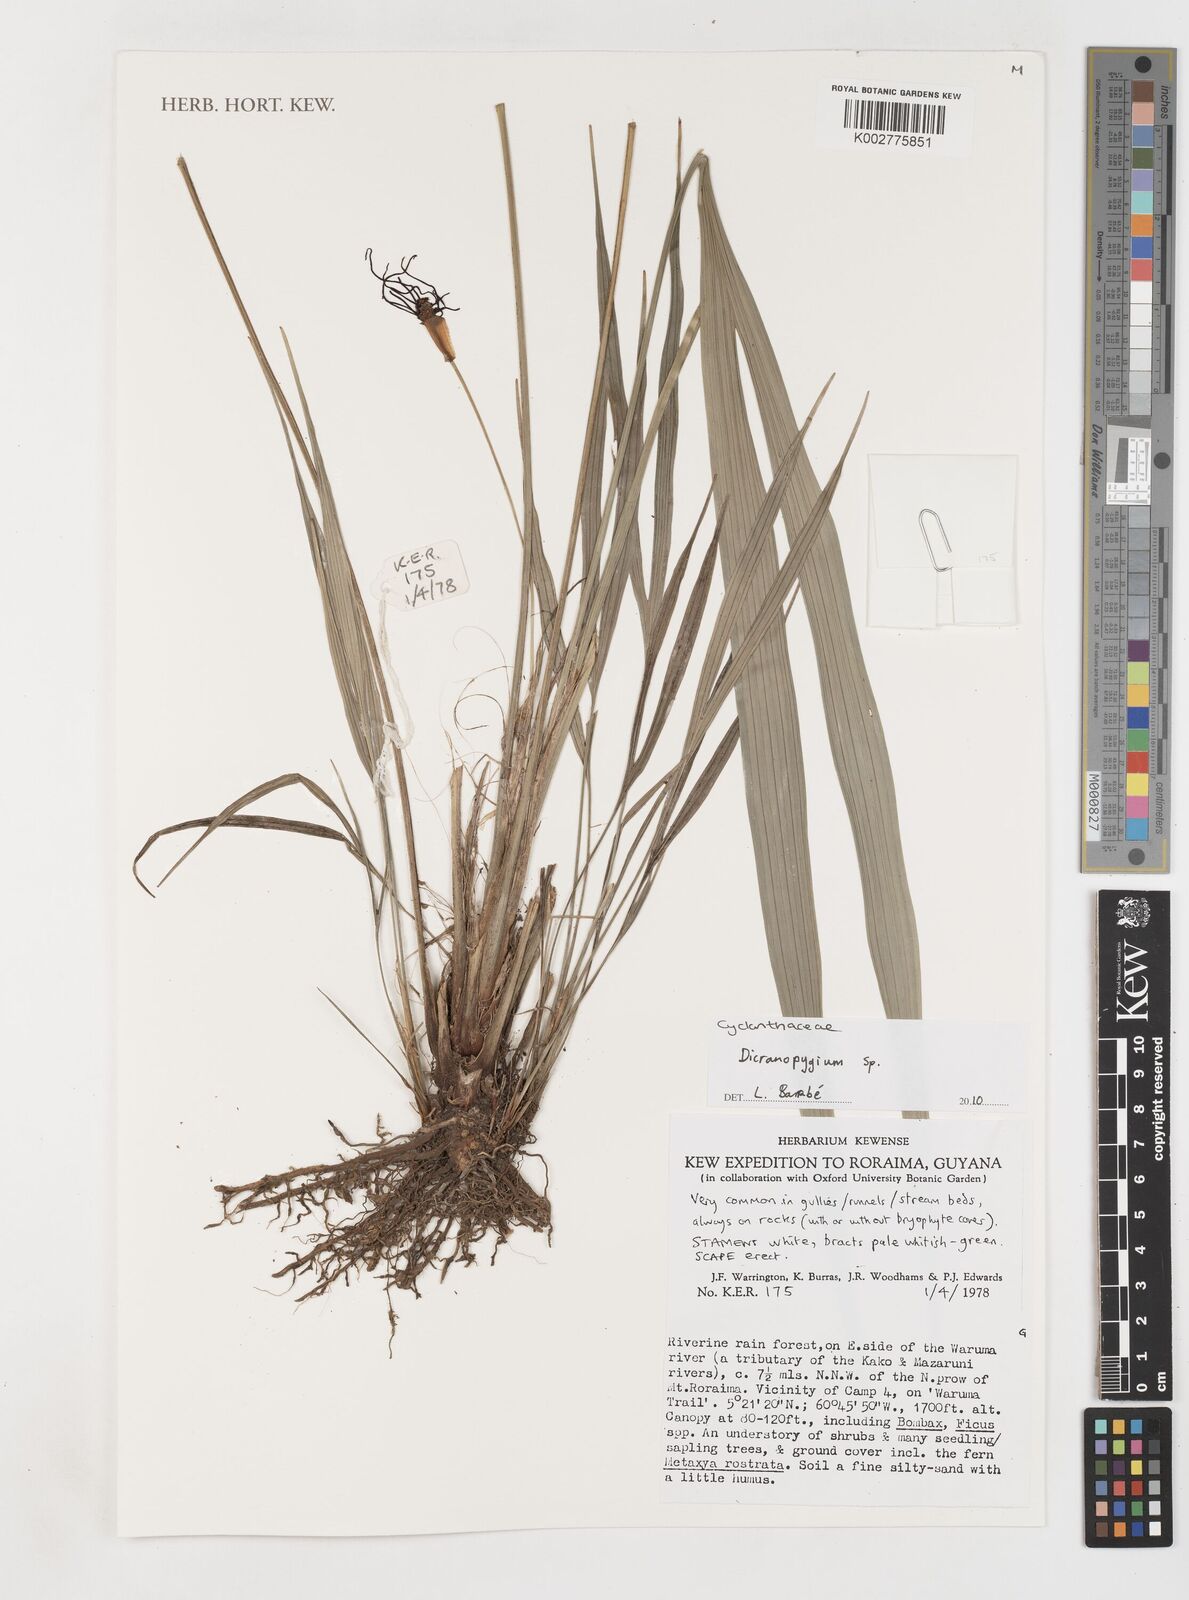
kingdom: Plantae
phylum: Tracheophyta
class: Liliopsida
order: Pandanales
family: Cyclanthaceae
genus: Dicranopygium
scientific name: Dicranopygium
